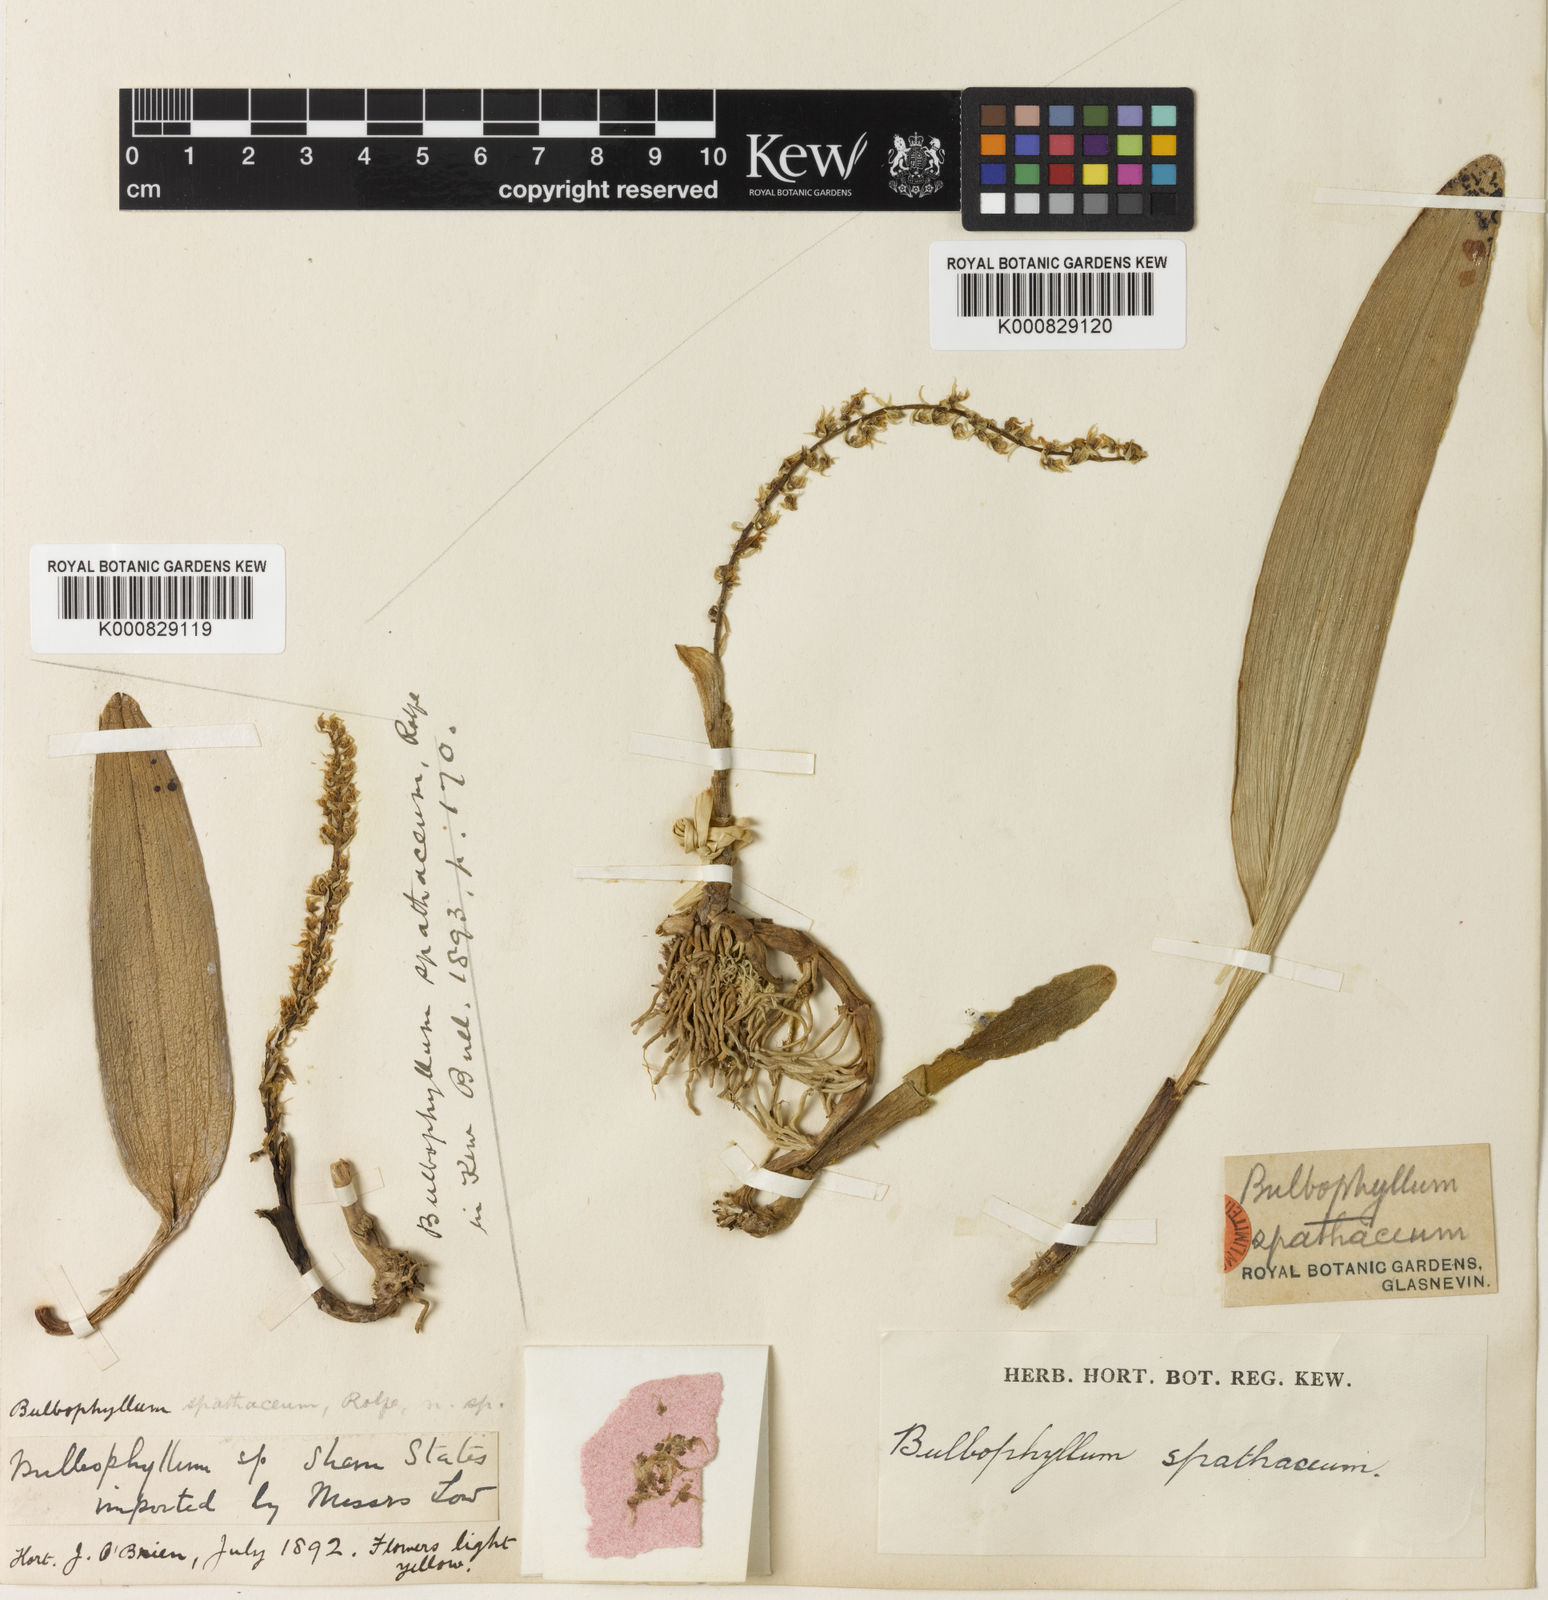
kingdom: Plantae
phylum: Tracheophyta
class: Liliopsida
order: Asparagales
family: Orchidaceae
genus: Bulbophyllum
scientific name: Bulbophyllum apodum
